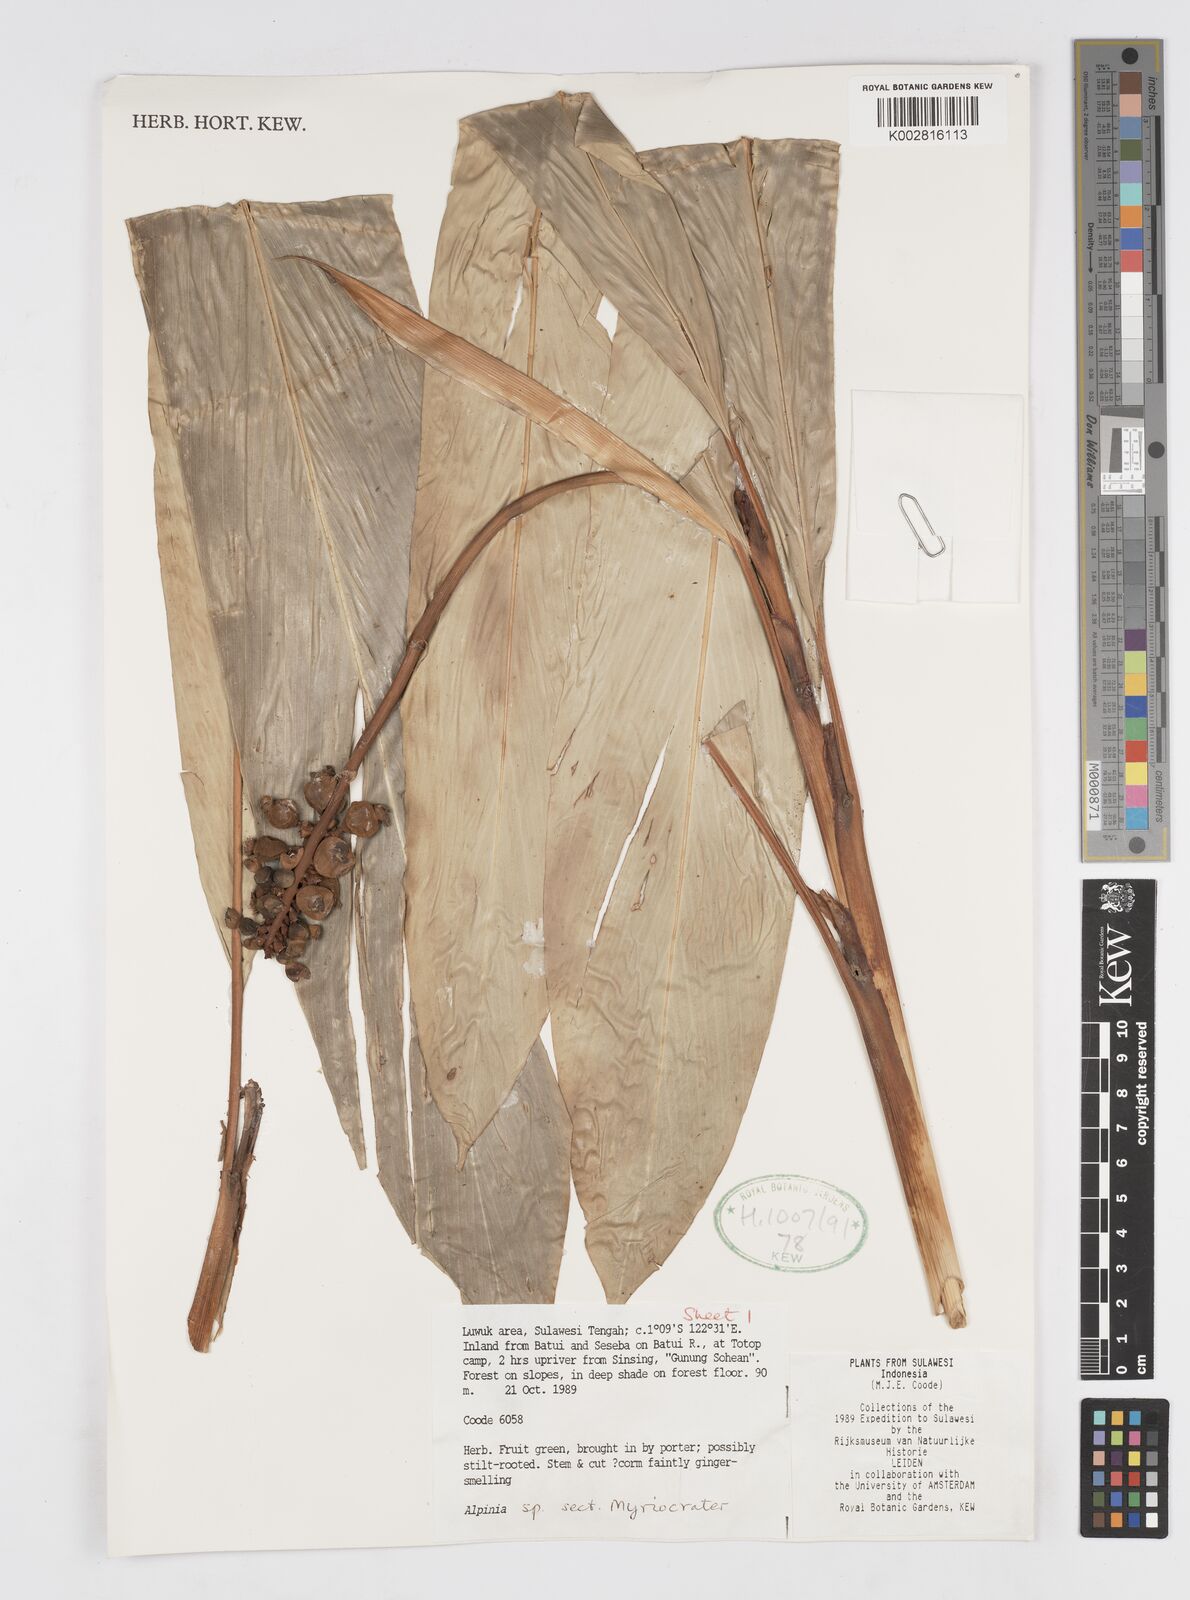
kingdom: Plantae
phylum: Tracheophyta
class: Liliopsida
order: Zingiberales
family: Zingiberaceae
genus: Alpinia
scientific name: Alpinia
